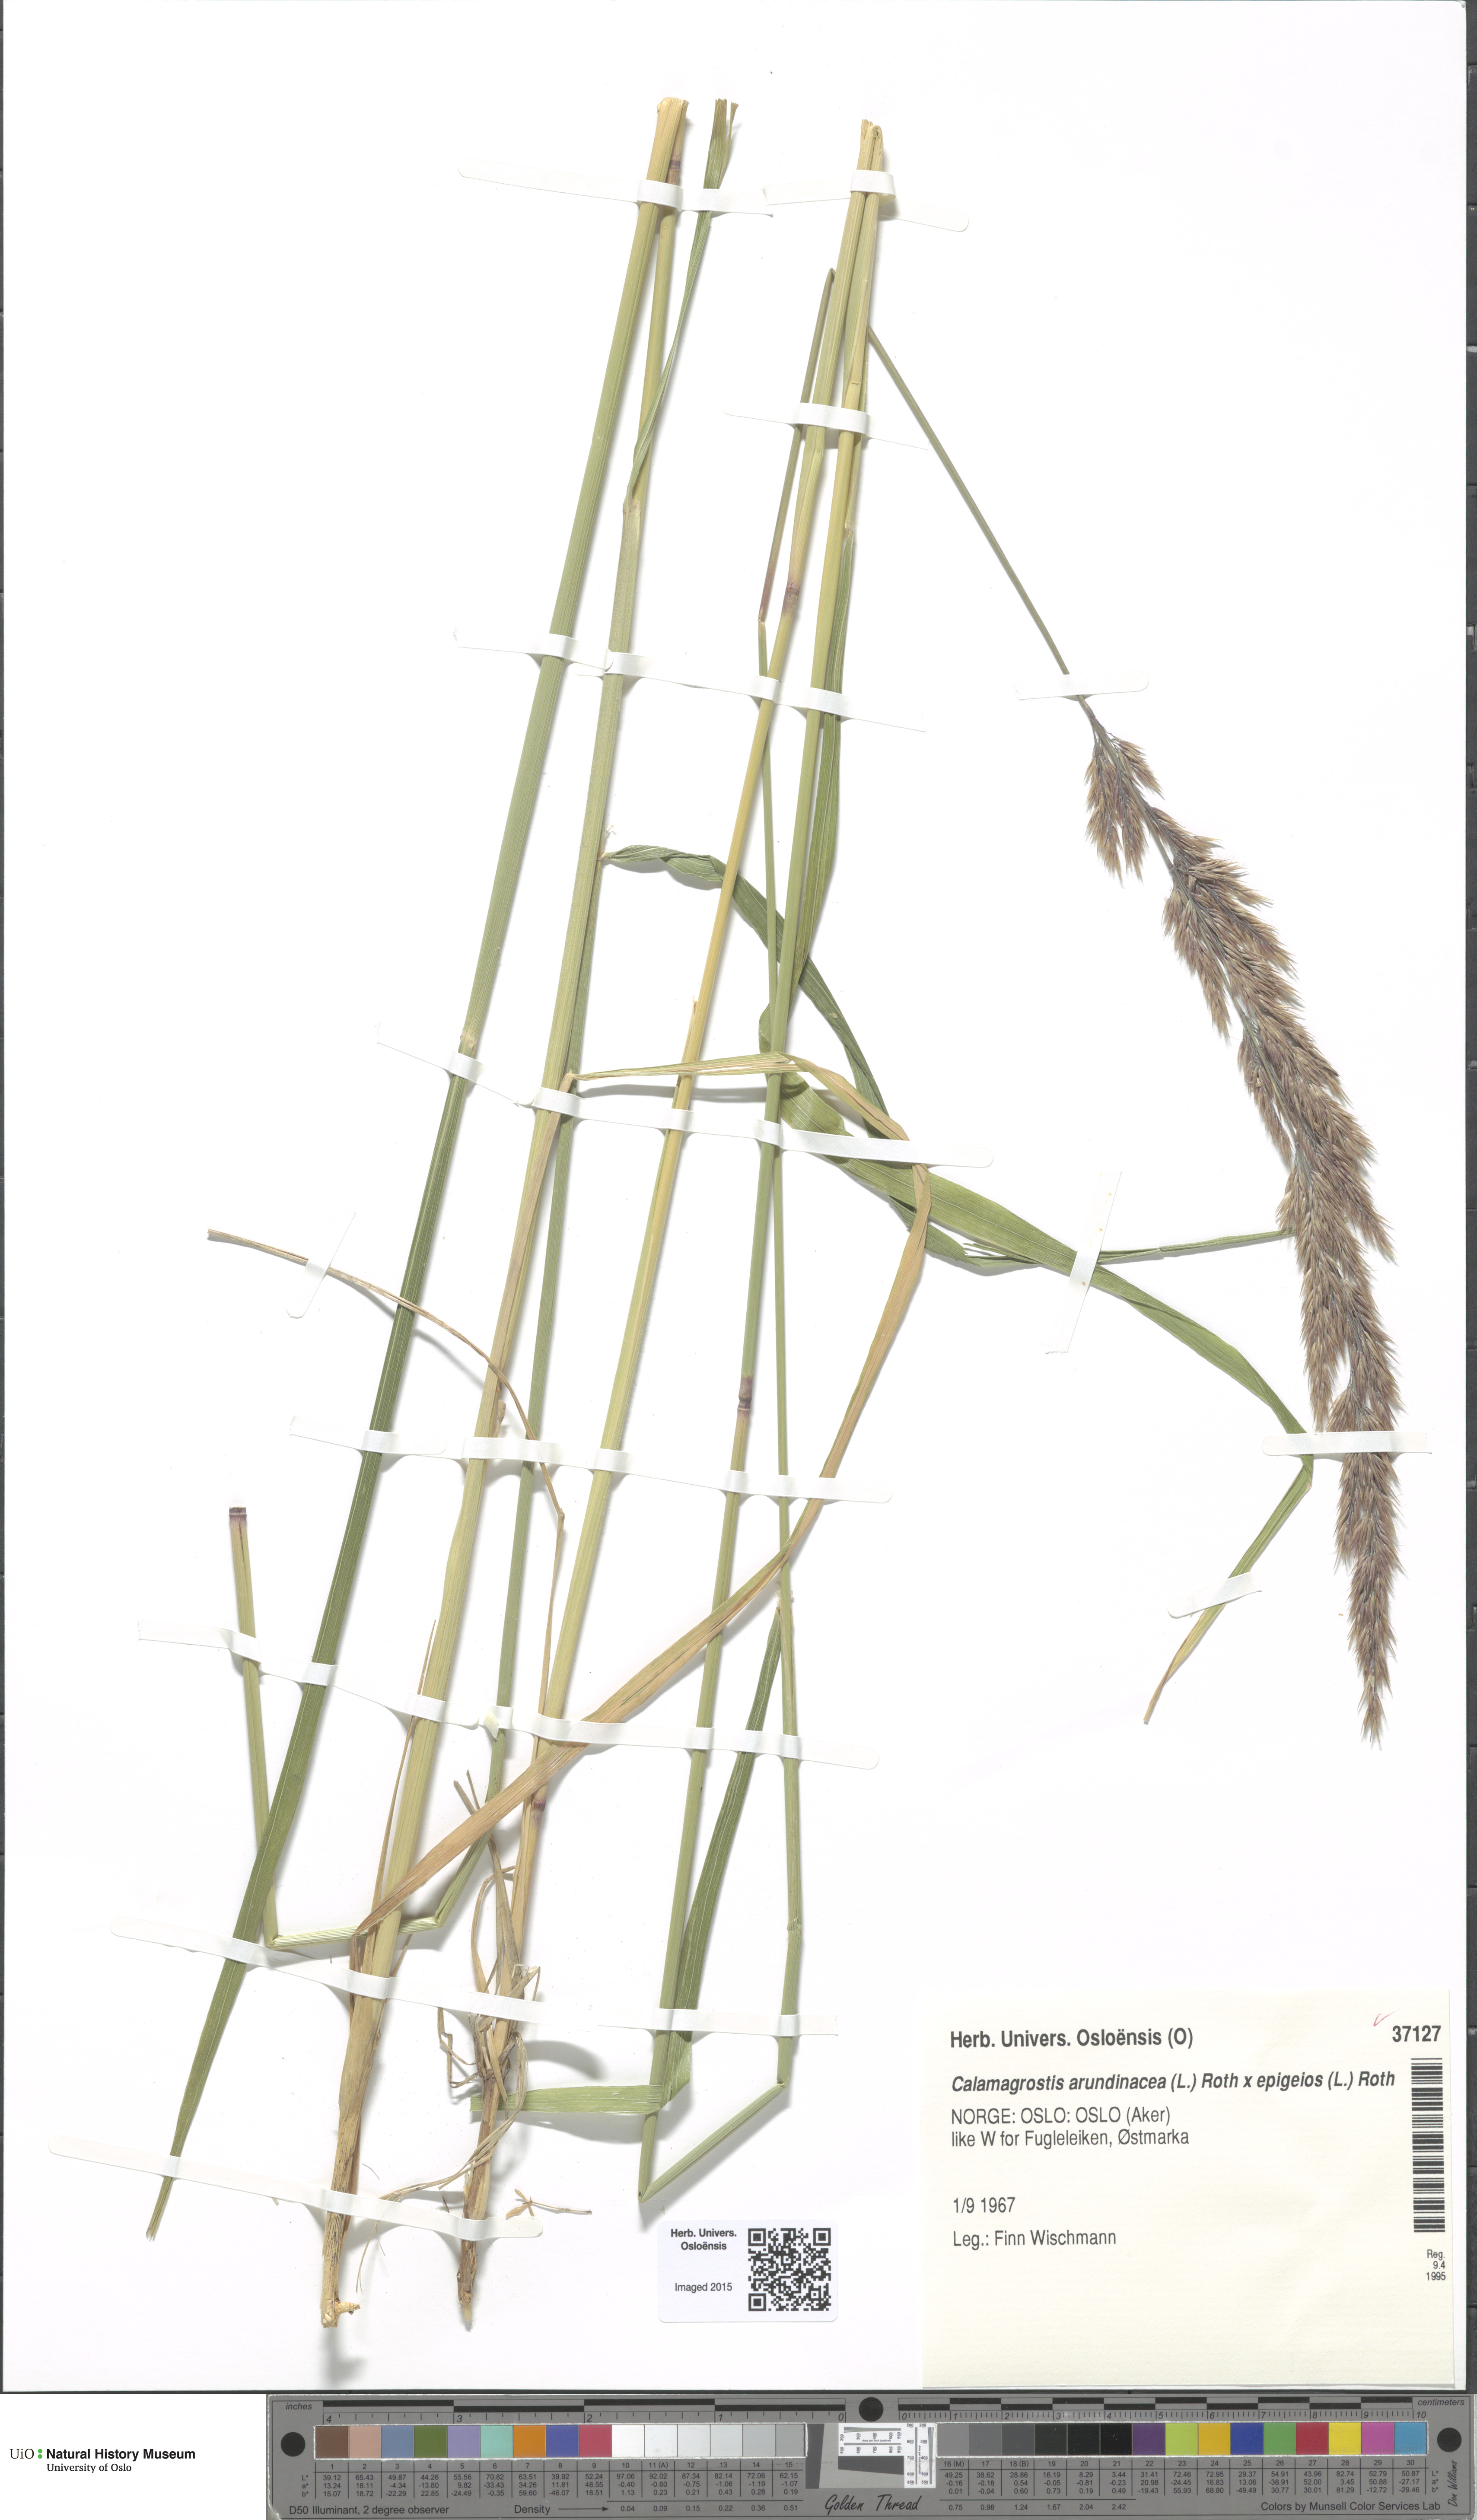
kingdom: Plantae
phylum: Tracheophyta
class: Liliopsida
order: Poales
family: Poaceae
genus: Calamagrostis
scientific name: Calamagrostis
